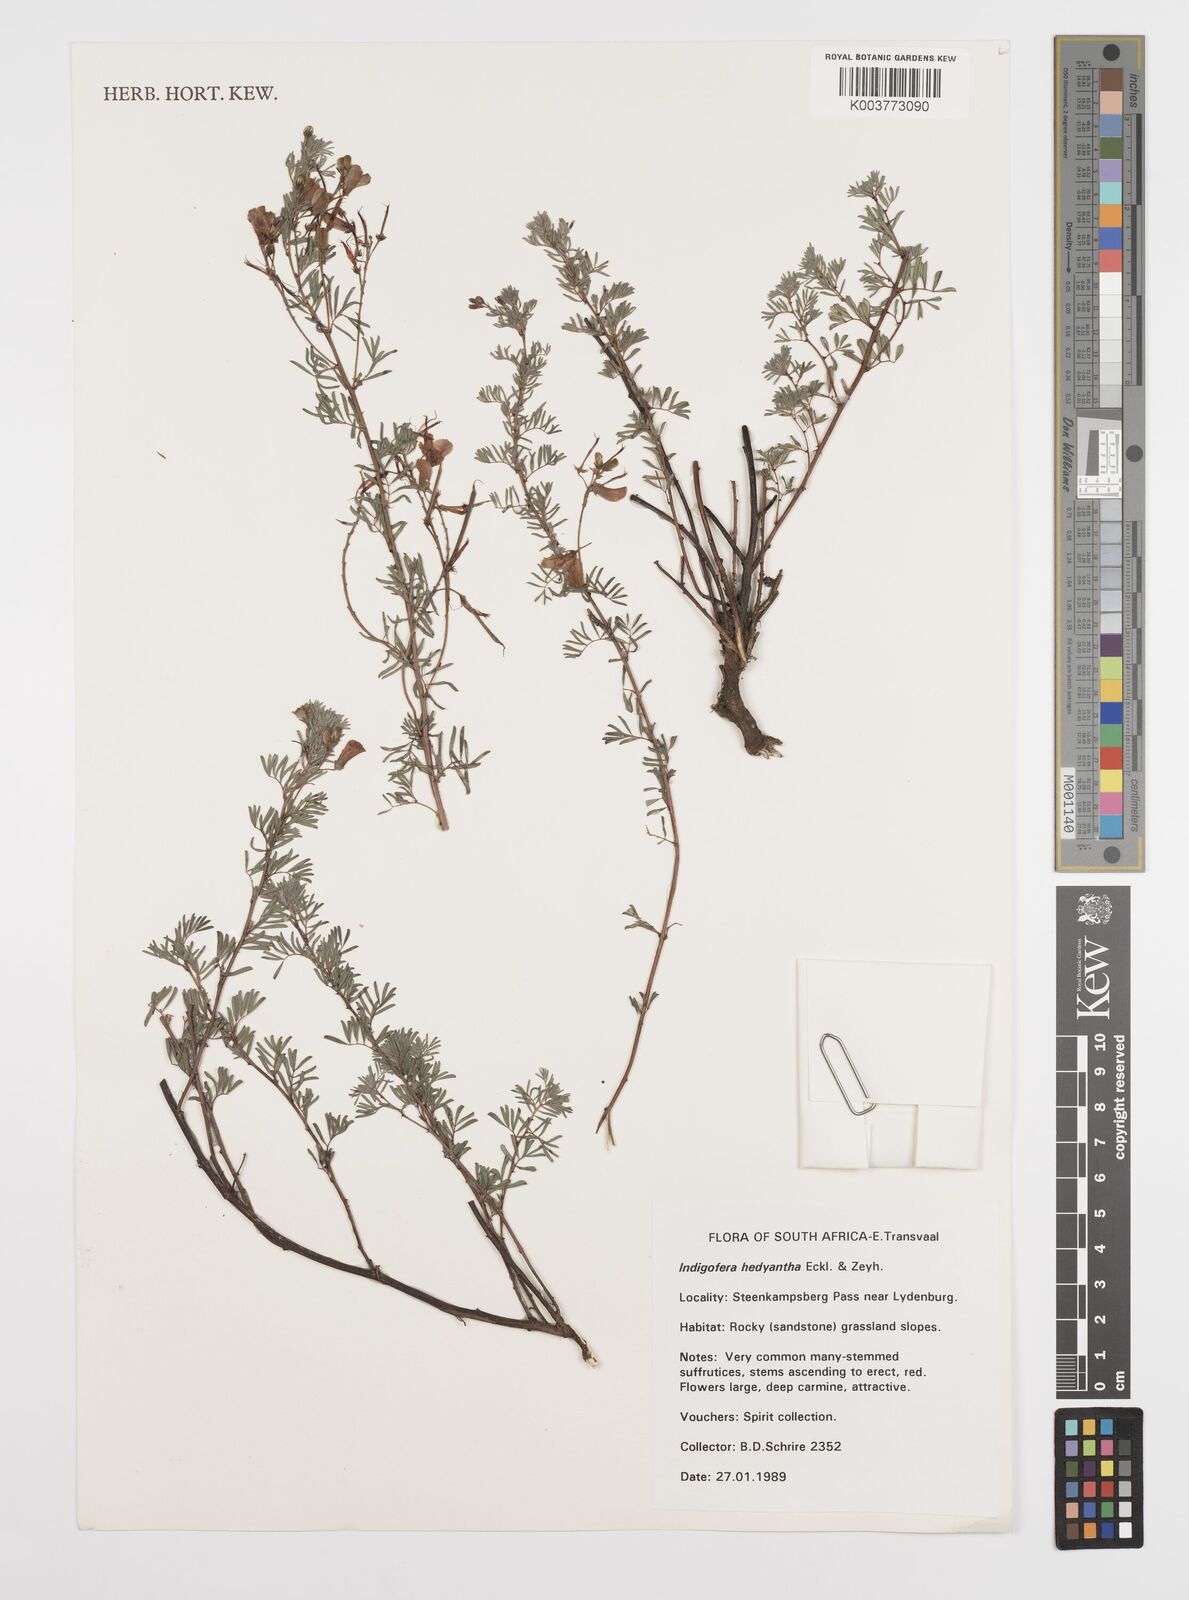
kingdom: Plantae
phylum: Tracheophyta
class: Magnoliopsida
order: Fabales
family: Fabaceae
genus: Indigofera
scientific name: Indigofera
